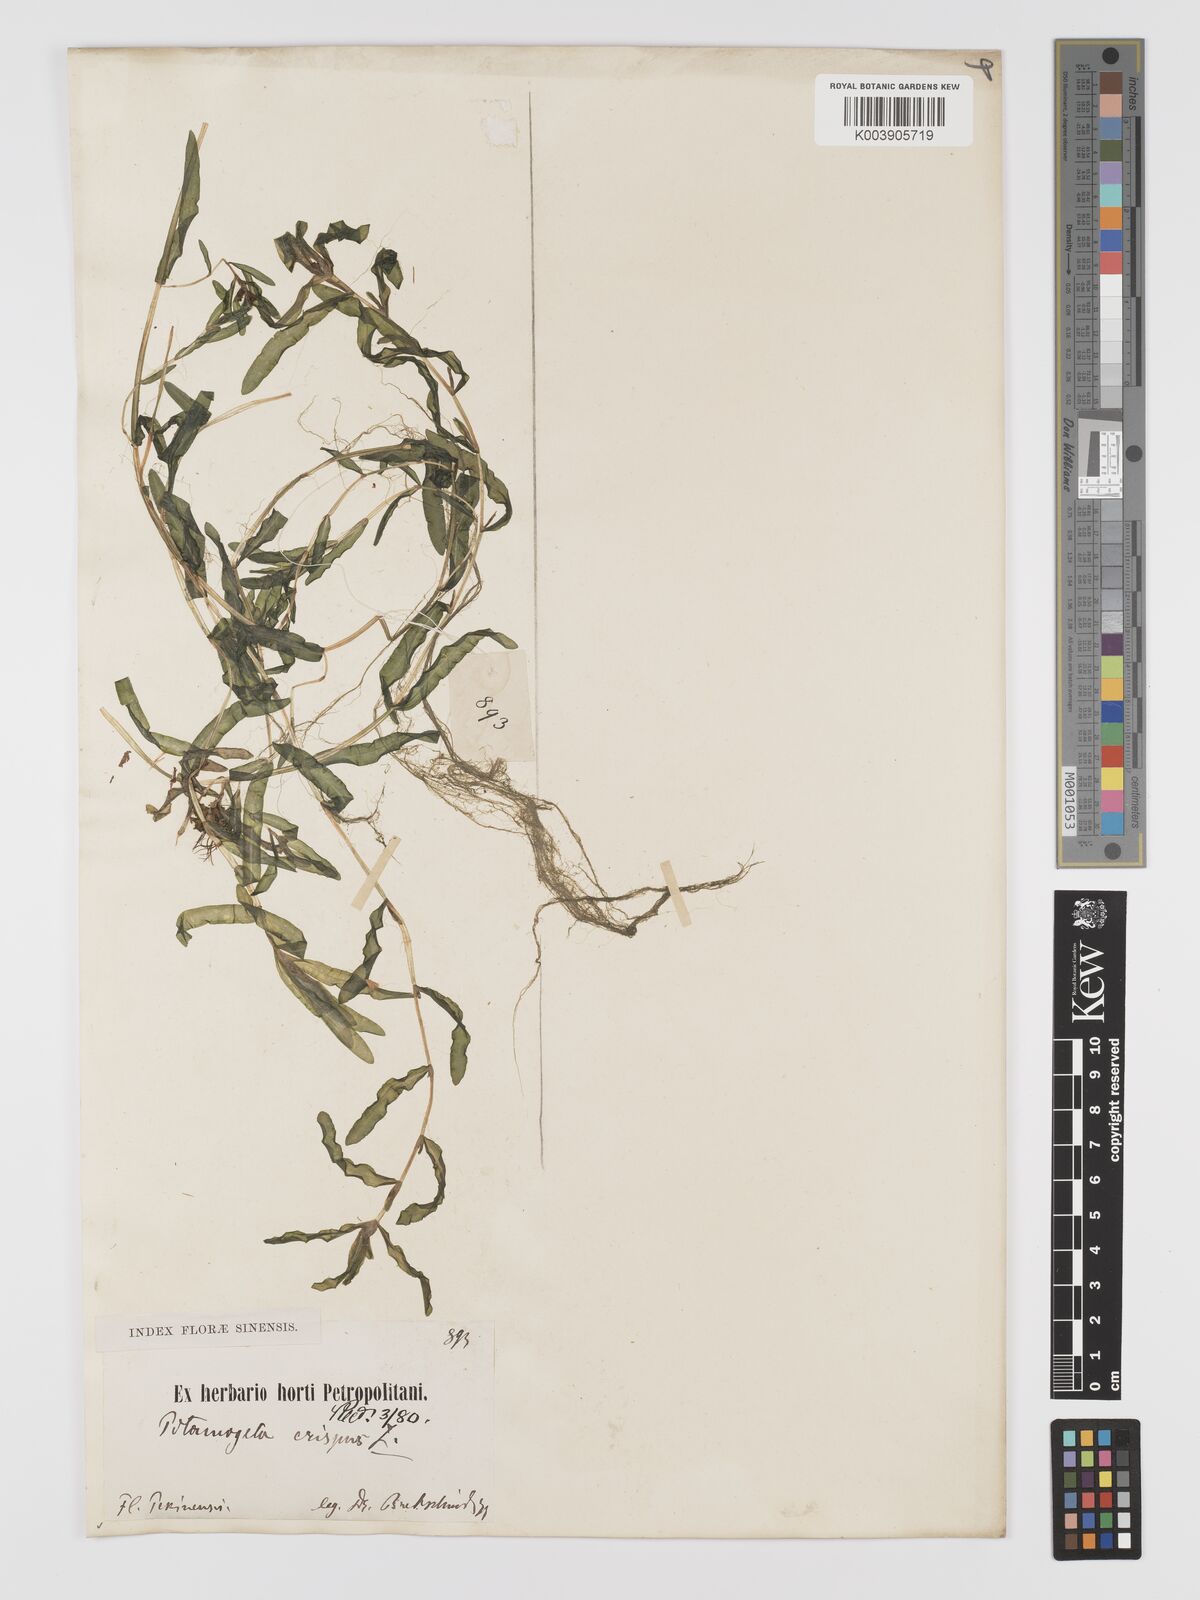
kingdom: Plantae
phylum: Tracheophyta
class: Liliopsida
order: Alismatales
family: Potamogetonaceae
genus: Potamogeton
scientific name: Potamogeton crispus
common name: Curled pondweed
